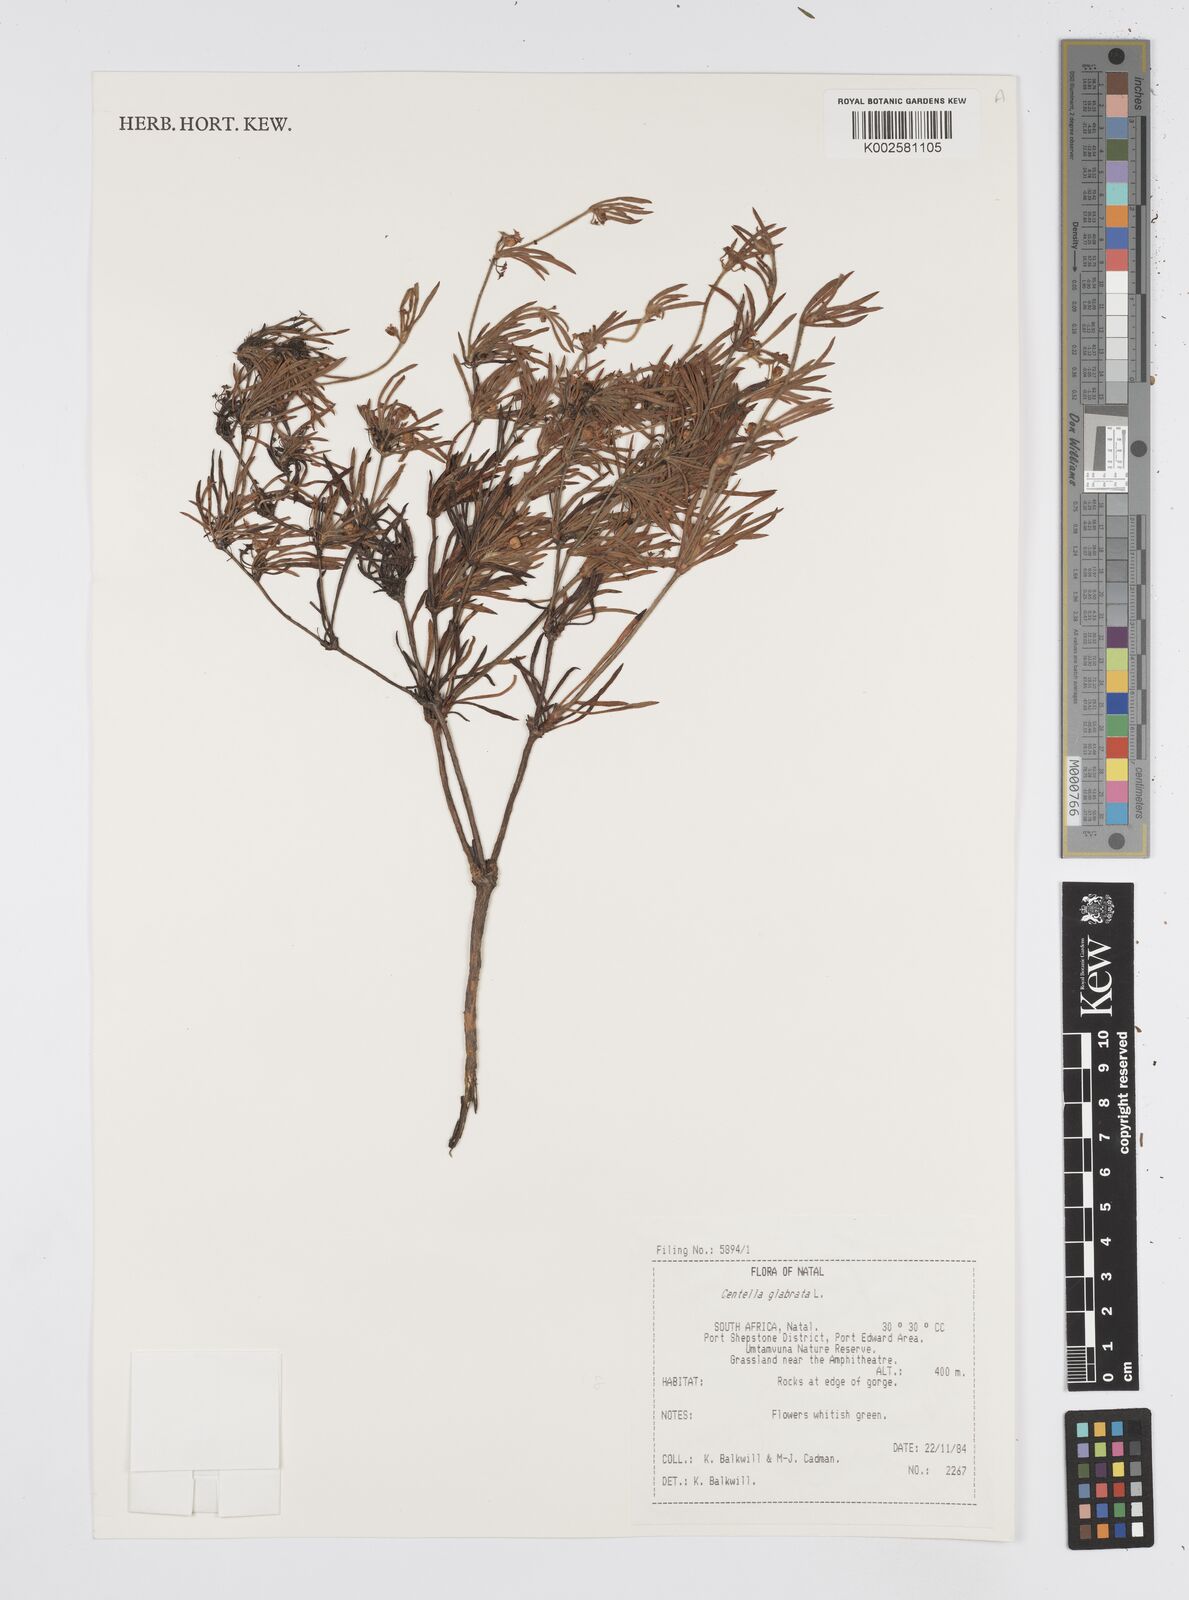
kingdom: Plantae
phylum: Tracheophyta
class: Magnoliopsida
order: Apiales
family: Apiaceae
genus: Centella
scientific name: Centella glabrata
